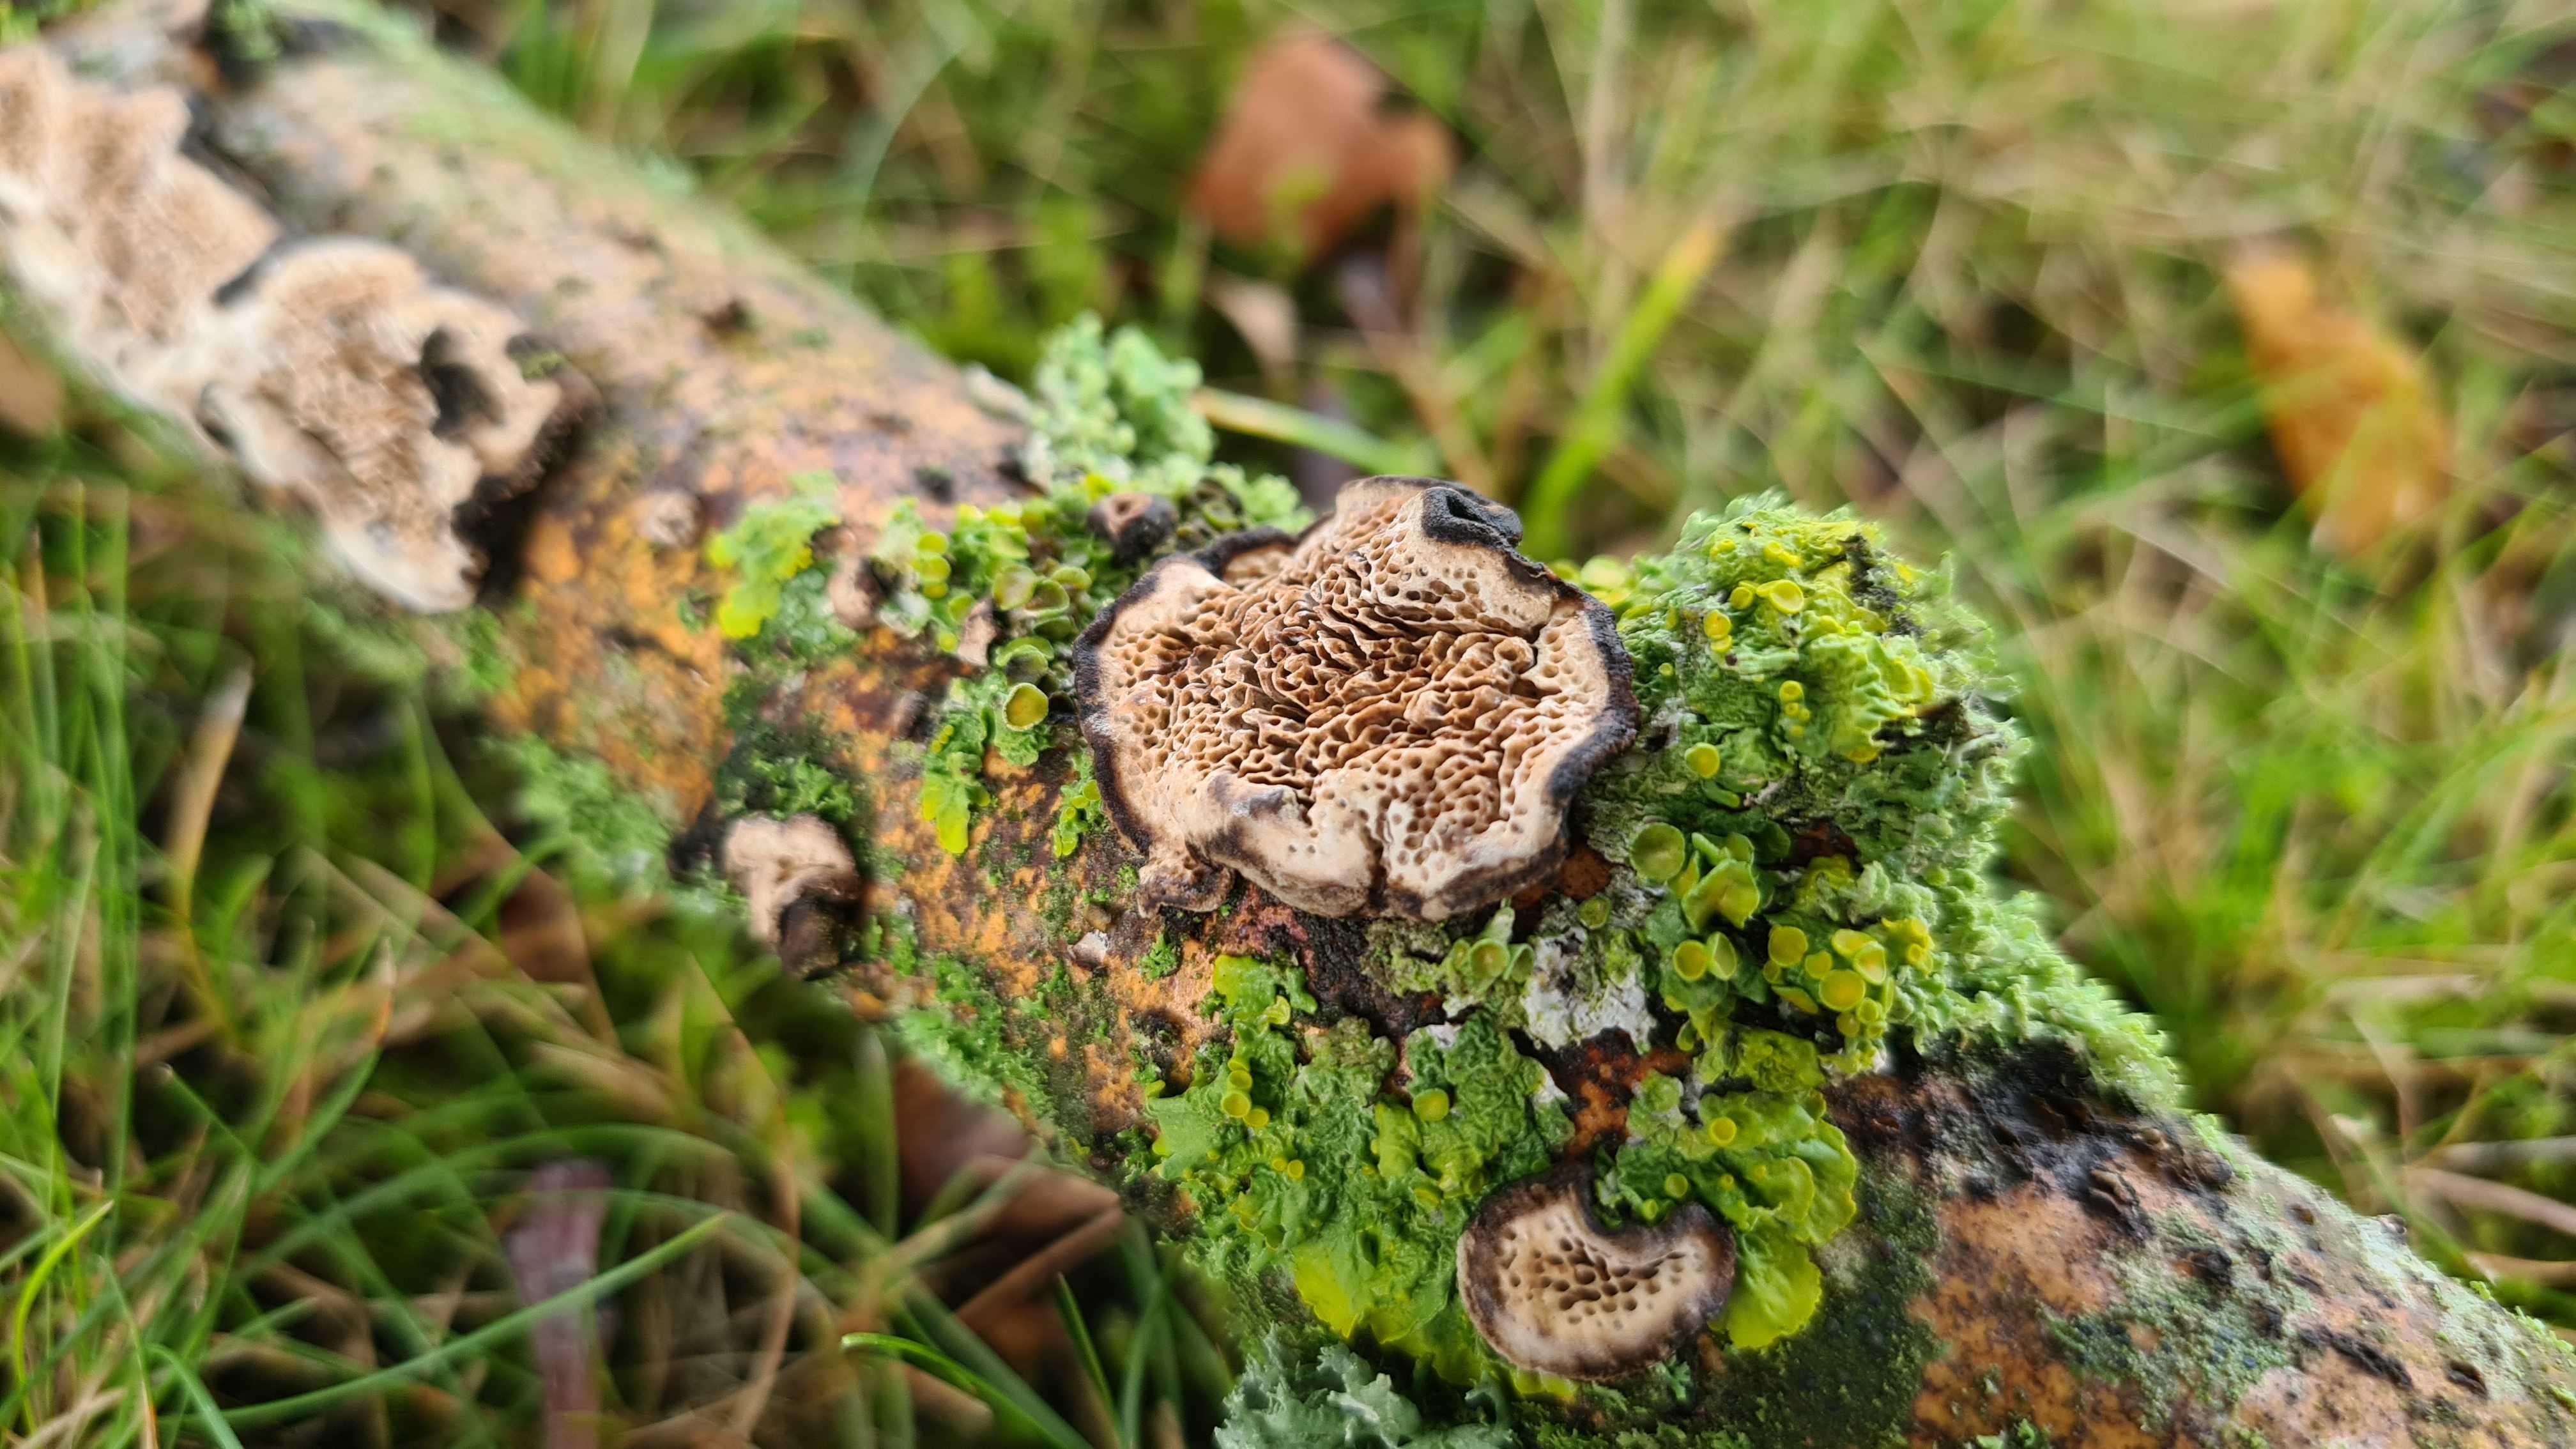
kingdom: Fungi
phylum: Basidiomycota
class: Agaricomycetes
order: Polyporales
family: Polyporaceae
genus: Podofomes
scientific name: Podofomes mollis
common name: blød begporesvamp
